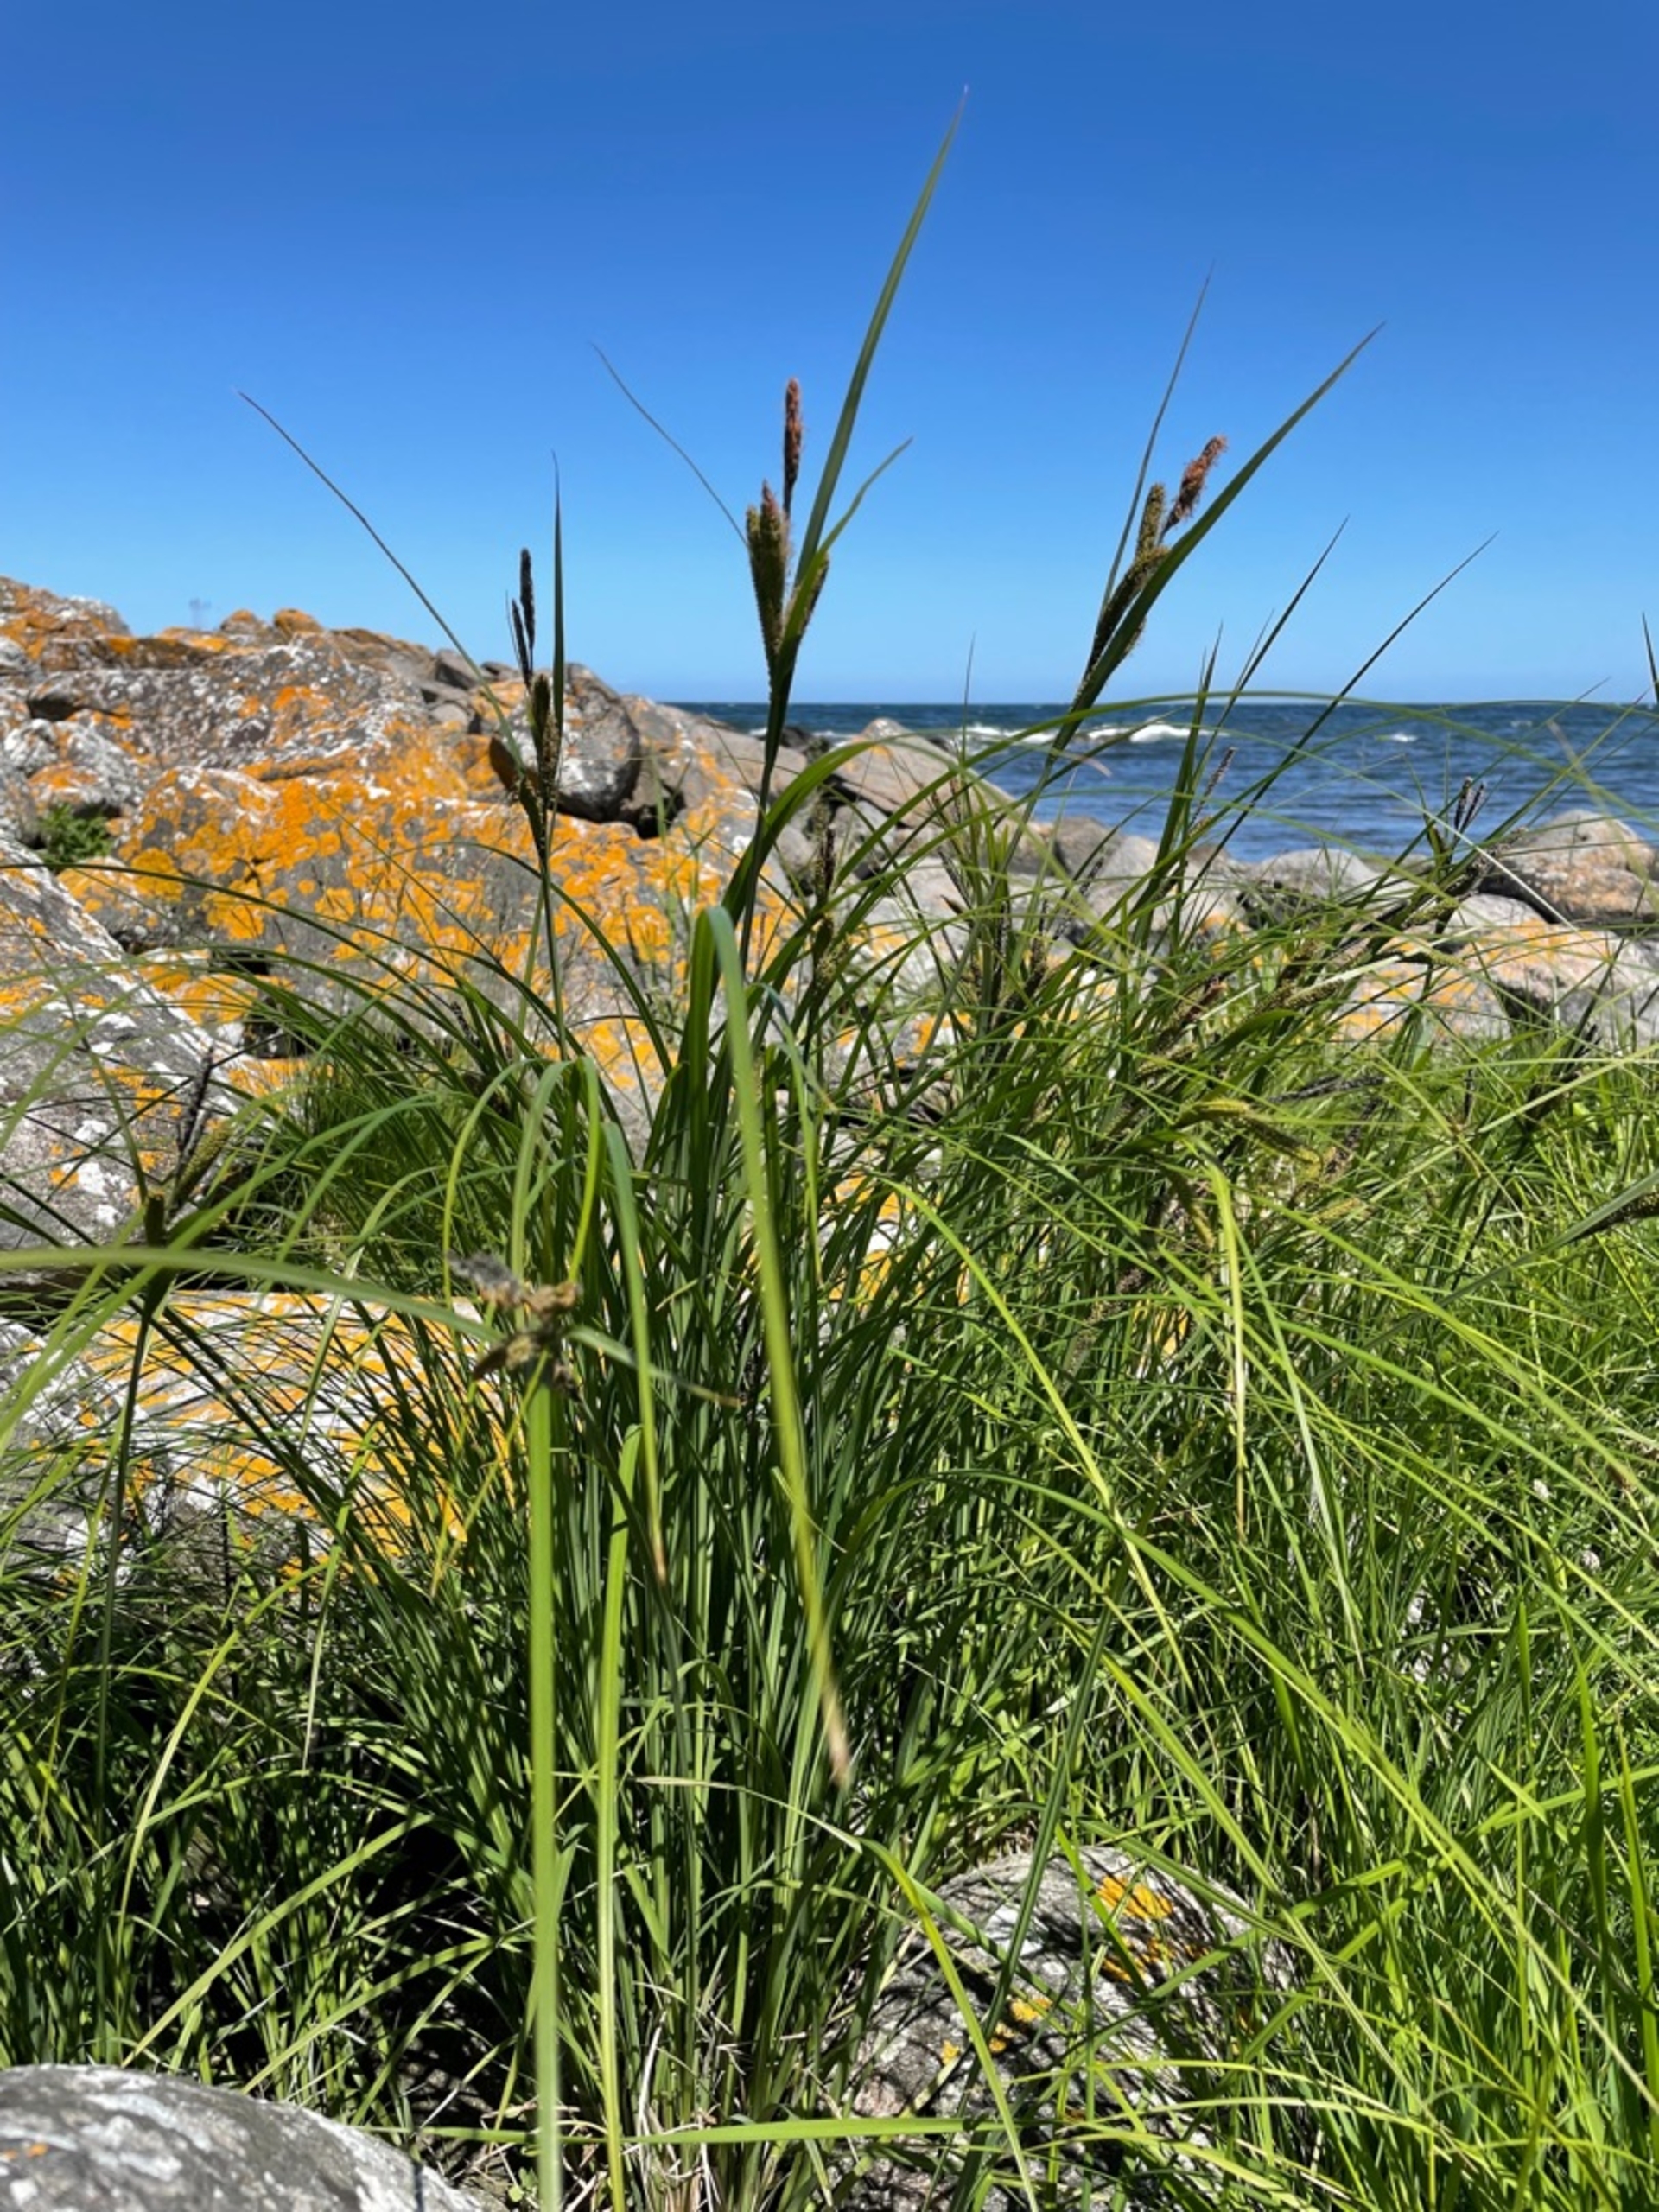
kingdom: Plantae
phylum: Tracheophyta
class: Liliopsida
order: Poales
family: Cyperaceae
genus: Carex
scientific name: Carex acutiformis
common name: Kær-star
